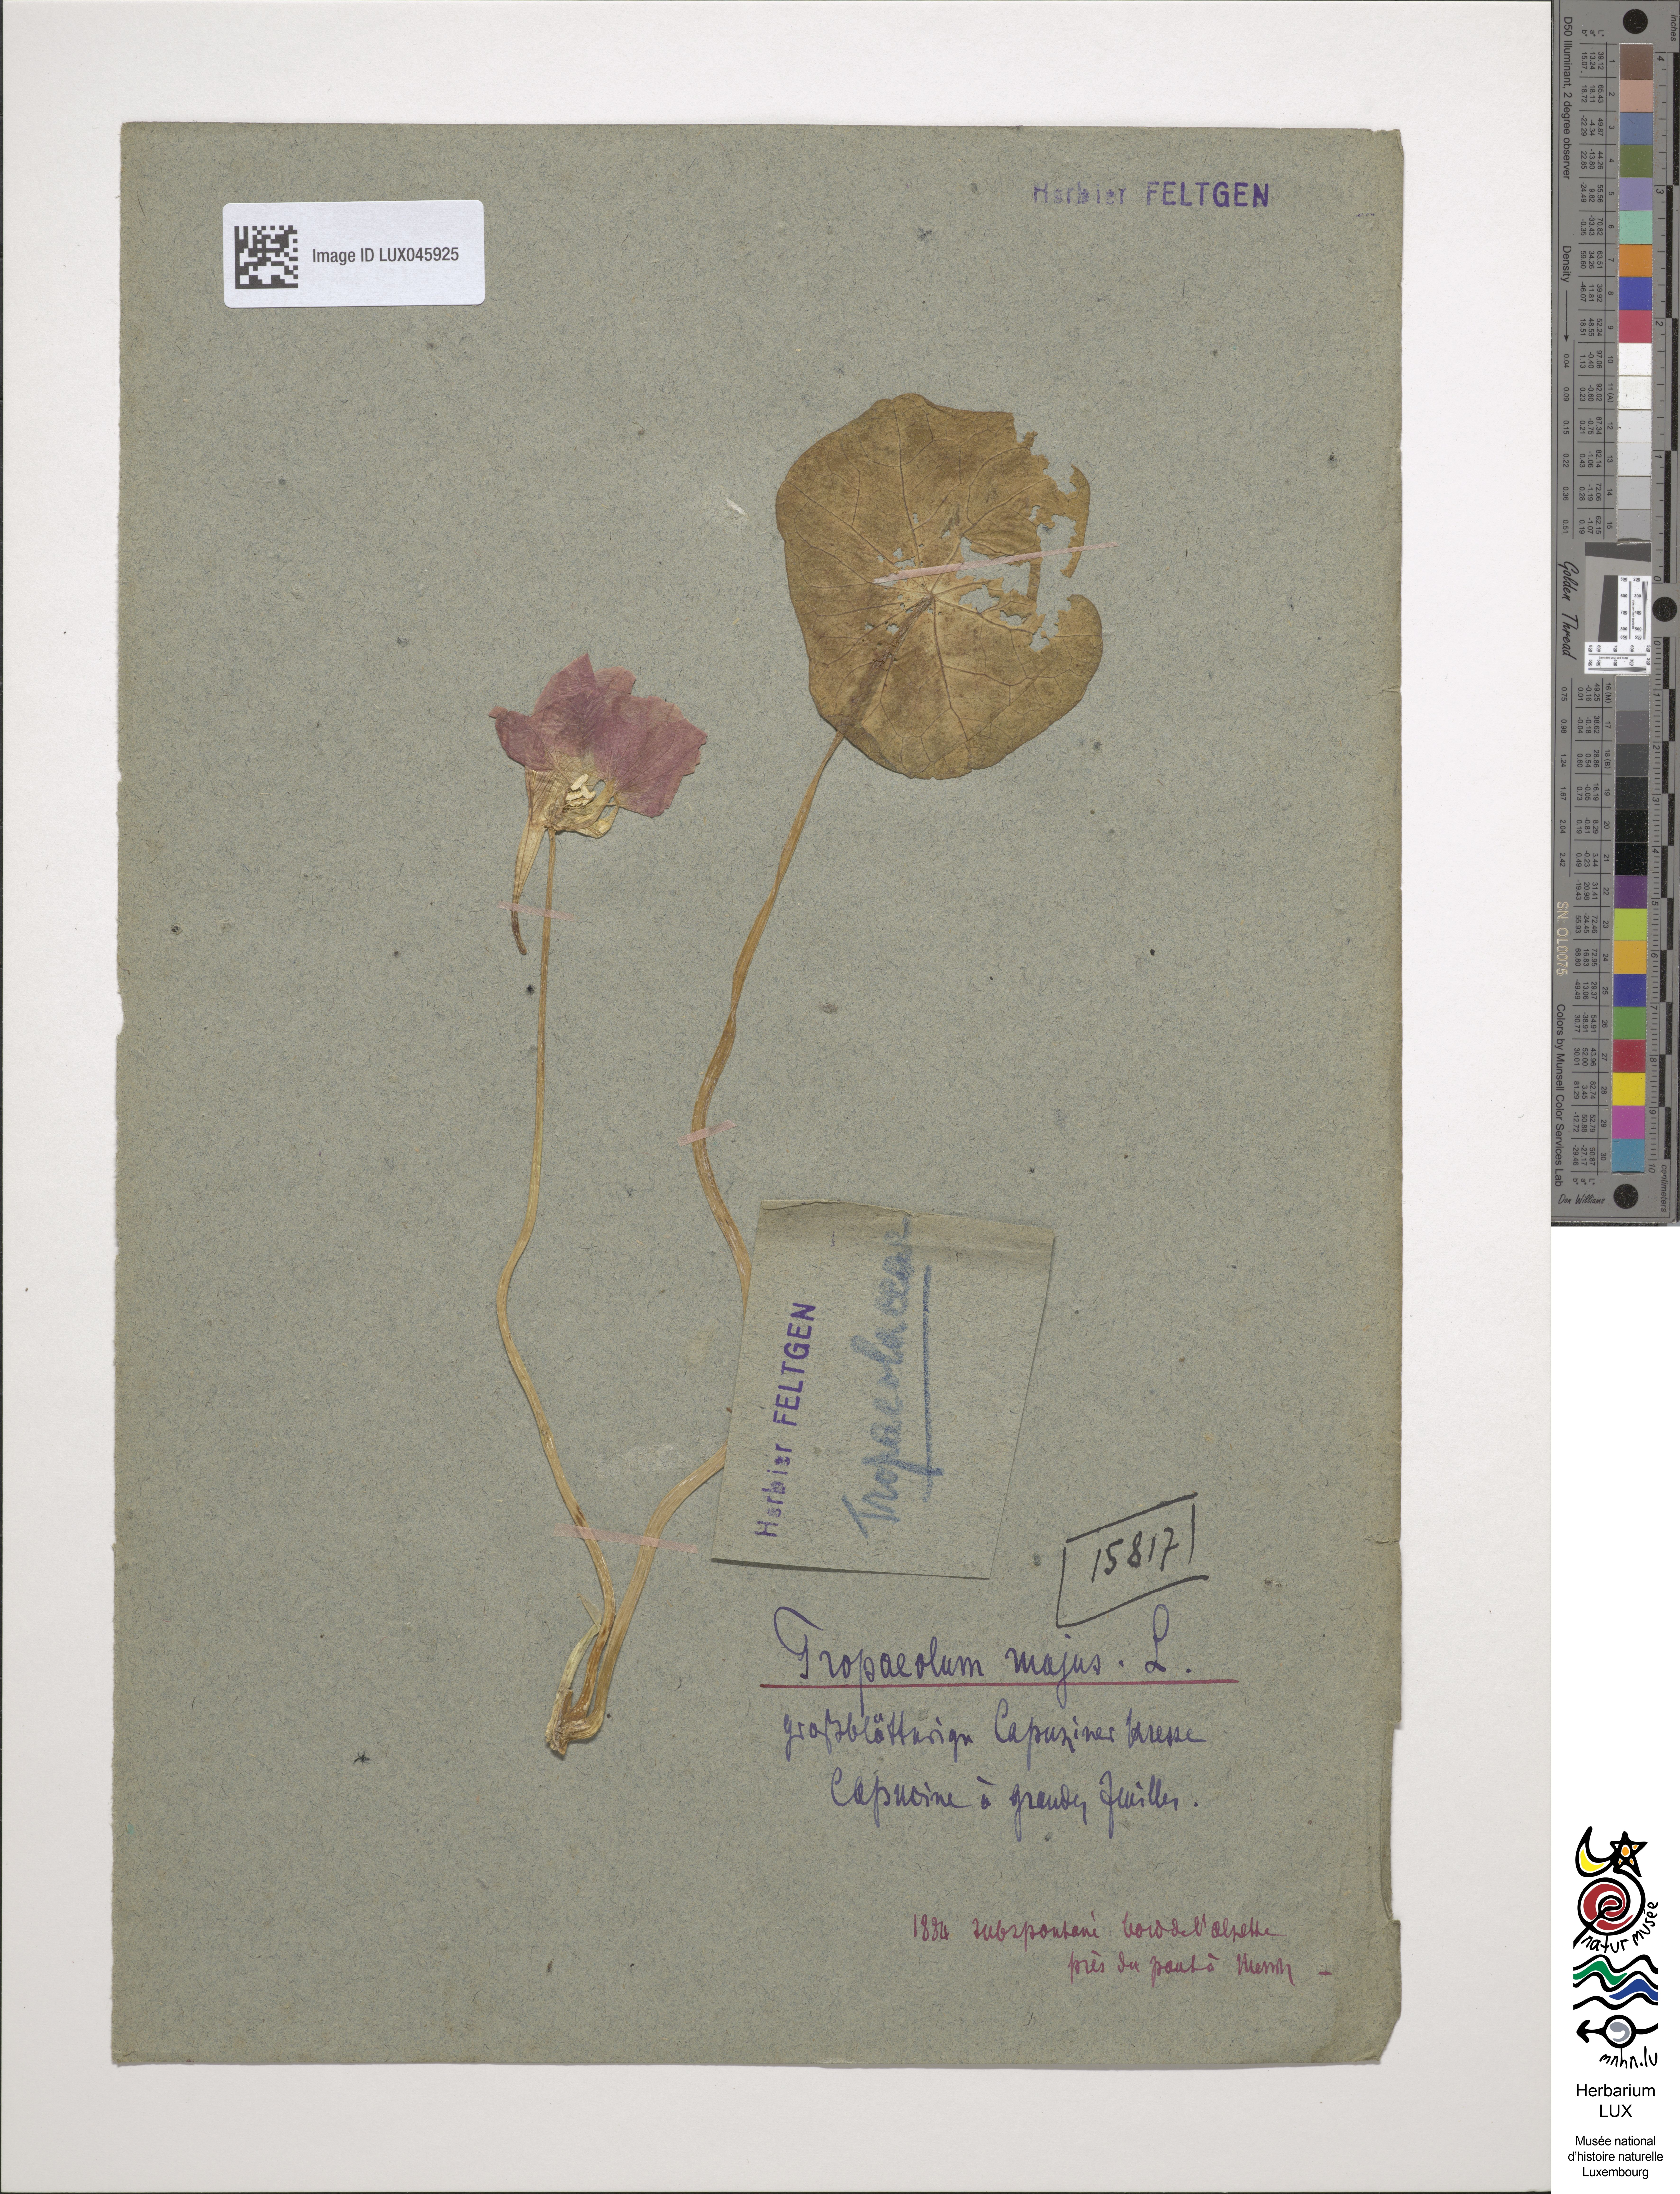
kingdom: Plantae
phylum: Tracheophyta
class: Magnoliopsida
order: Brassicales
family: Tropaeolaceae
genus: Tropaeolum
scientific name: Tropaeolum majus
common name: Nasturtium
